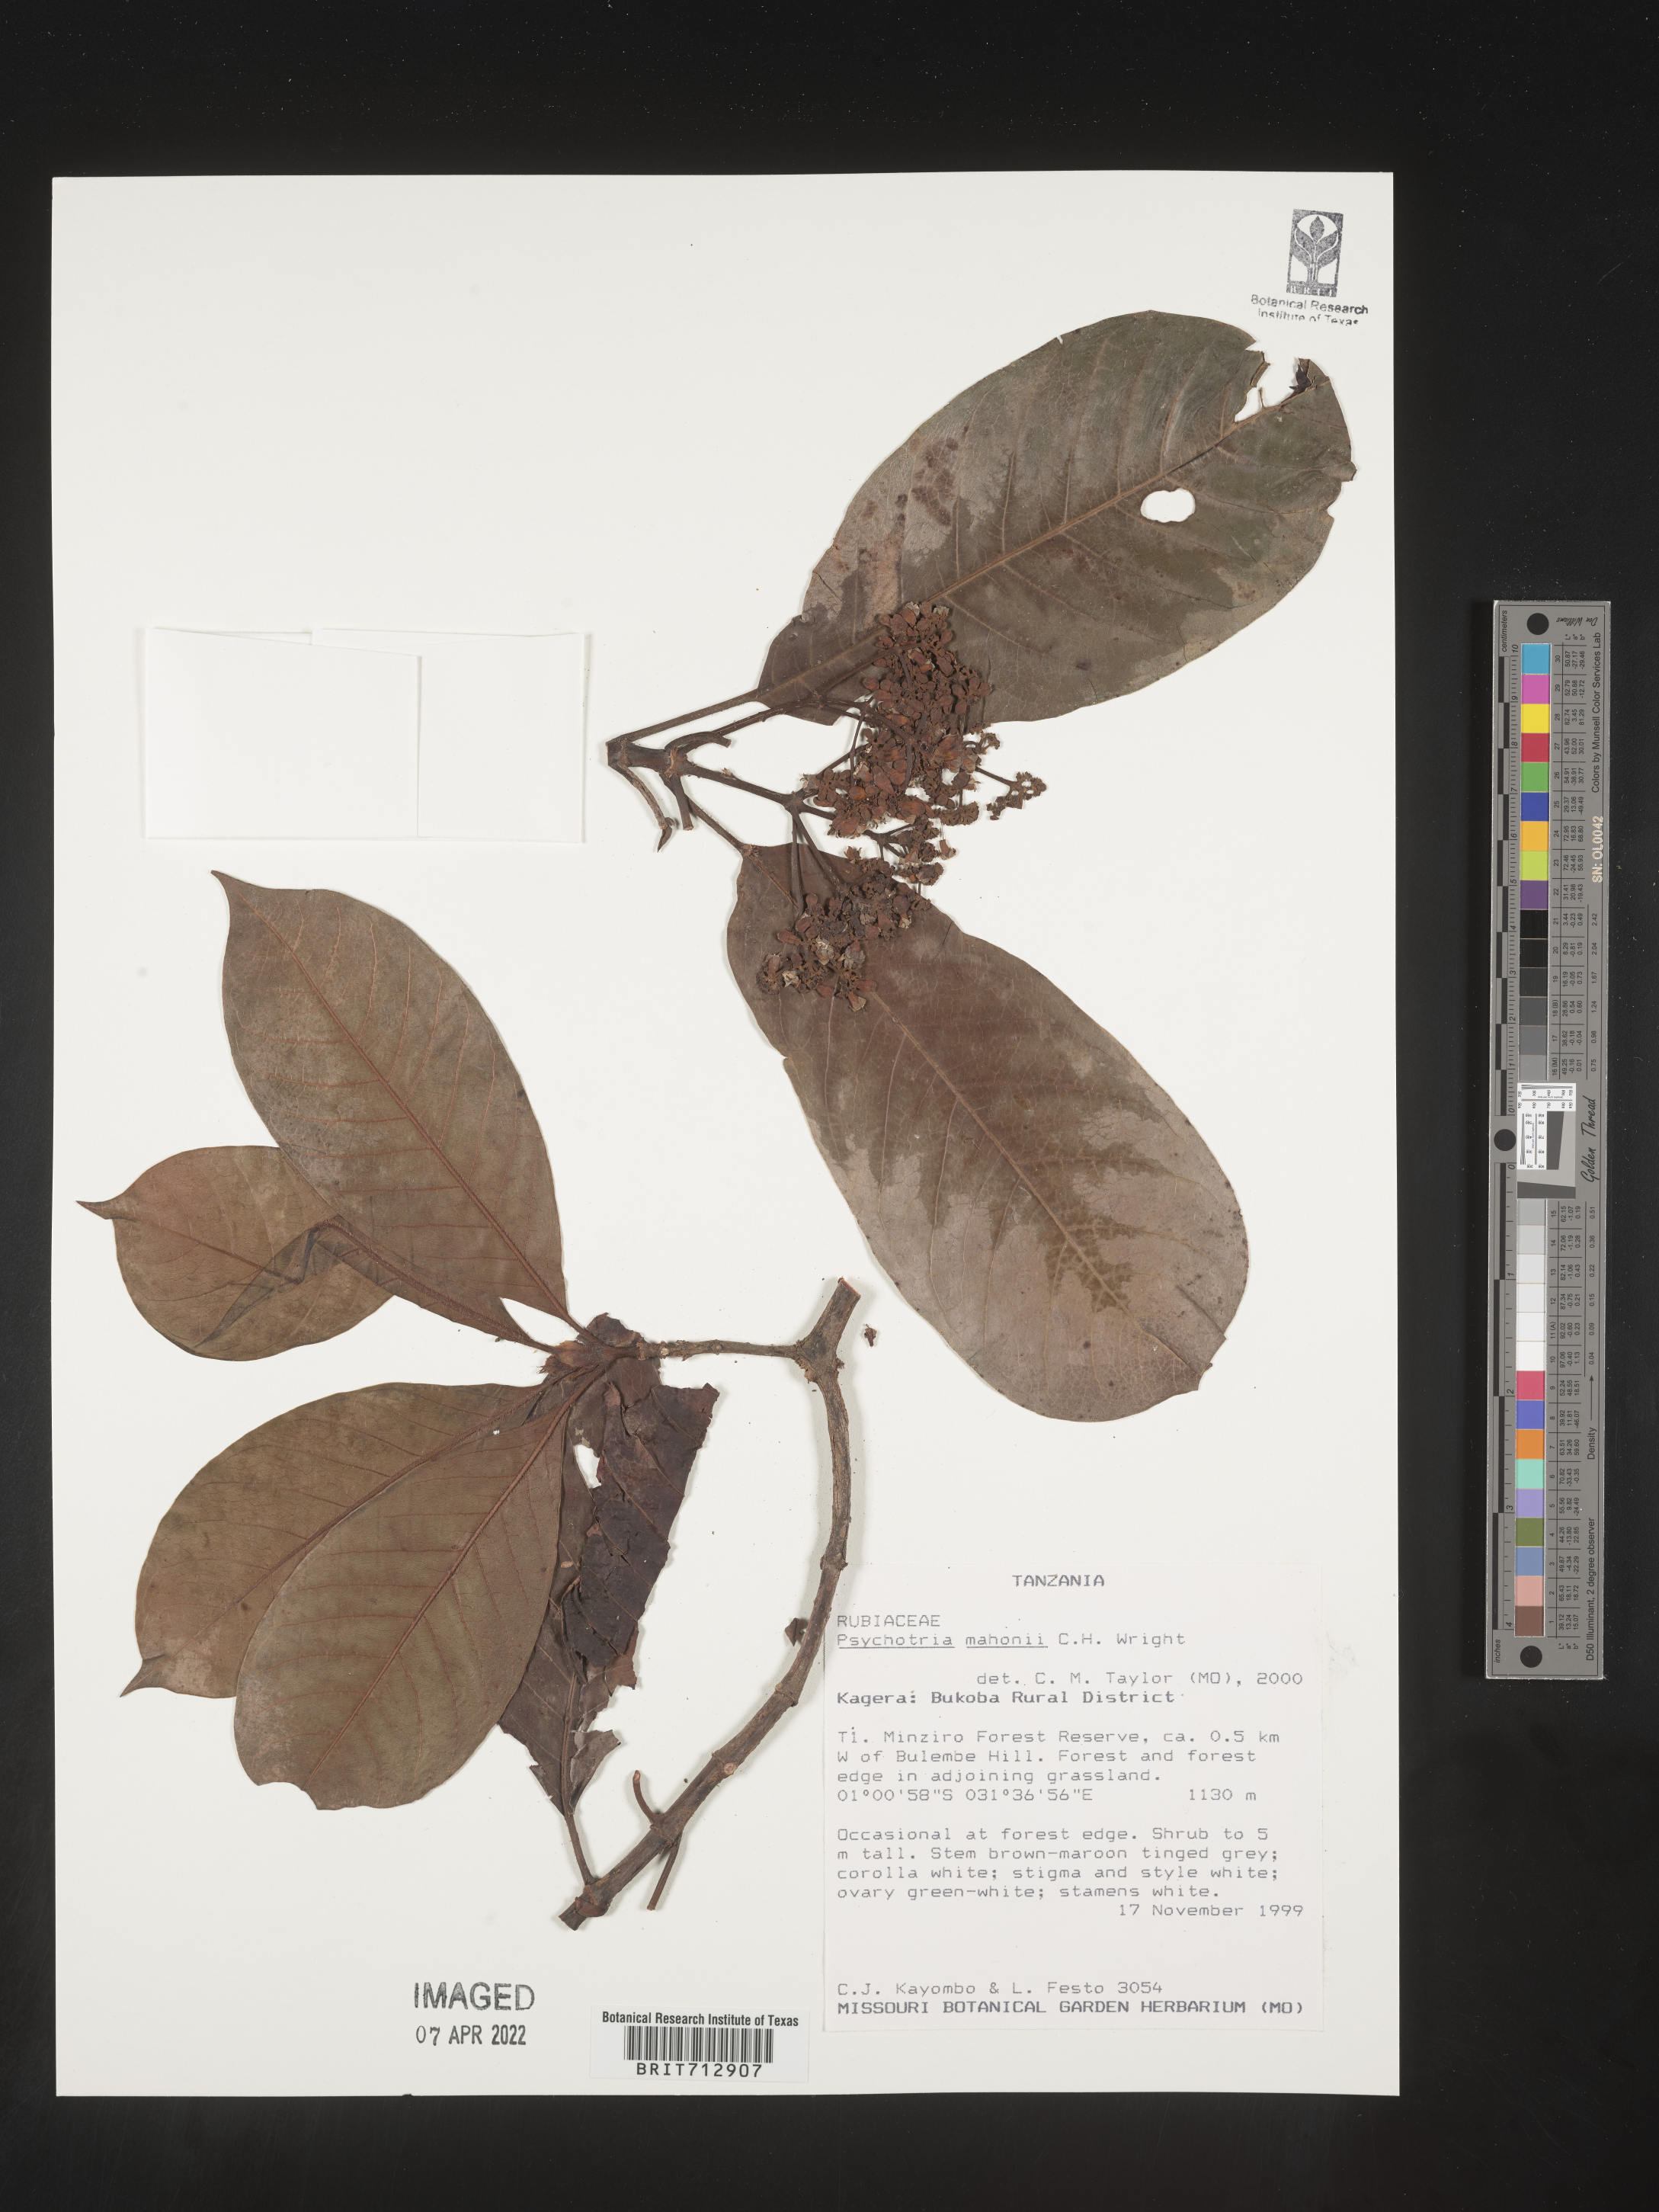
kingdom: Plantae
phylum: Tracheophyta
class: Magnoliopsida
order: Gentianales
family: Rubiaceae
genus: Psychotria
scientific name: Psychotria mahonii
